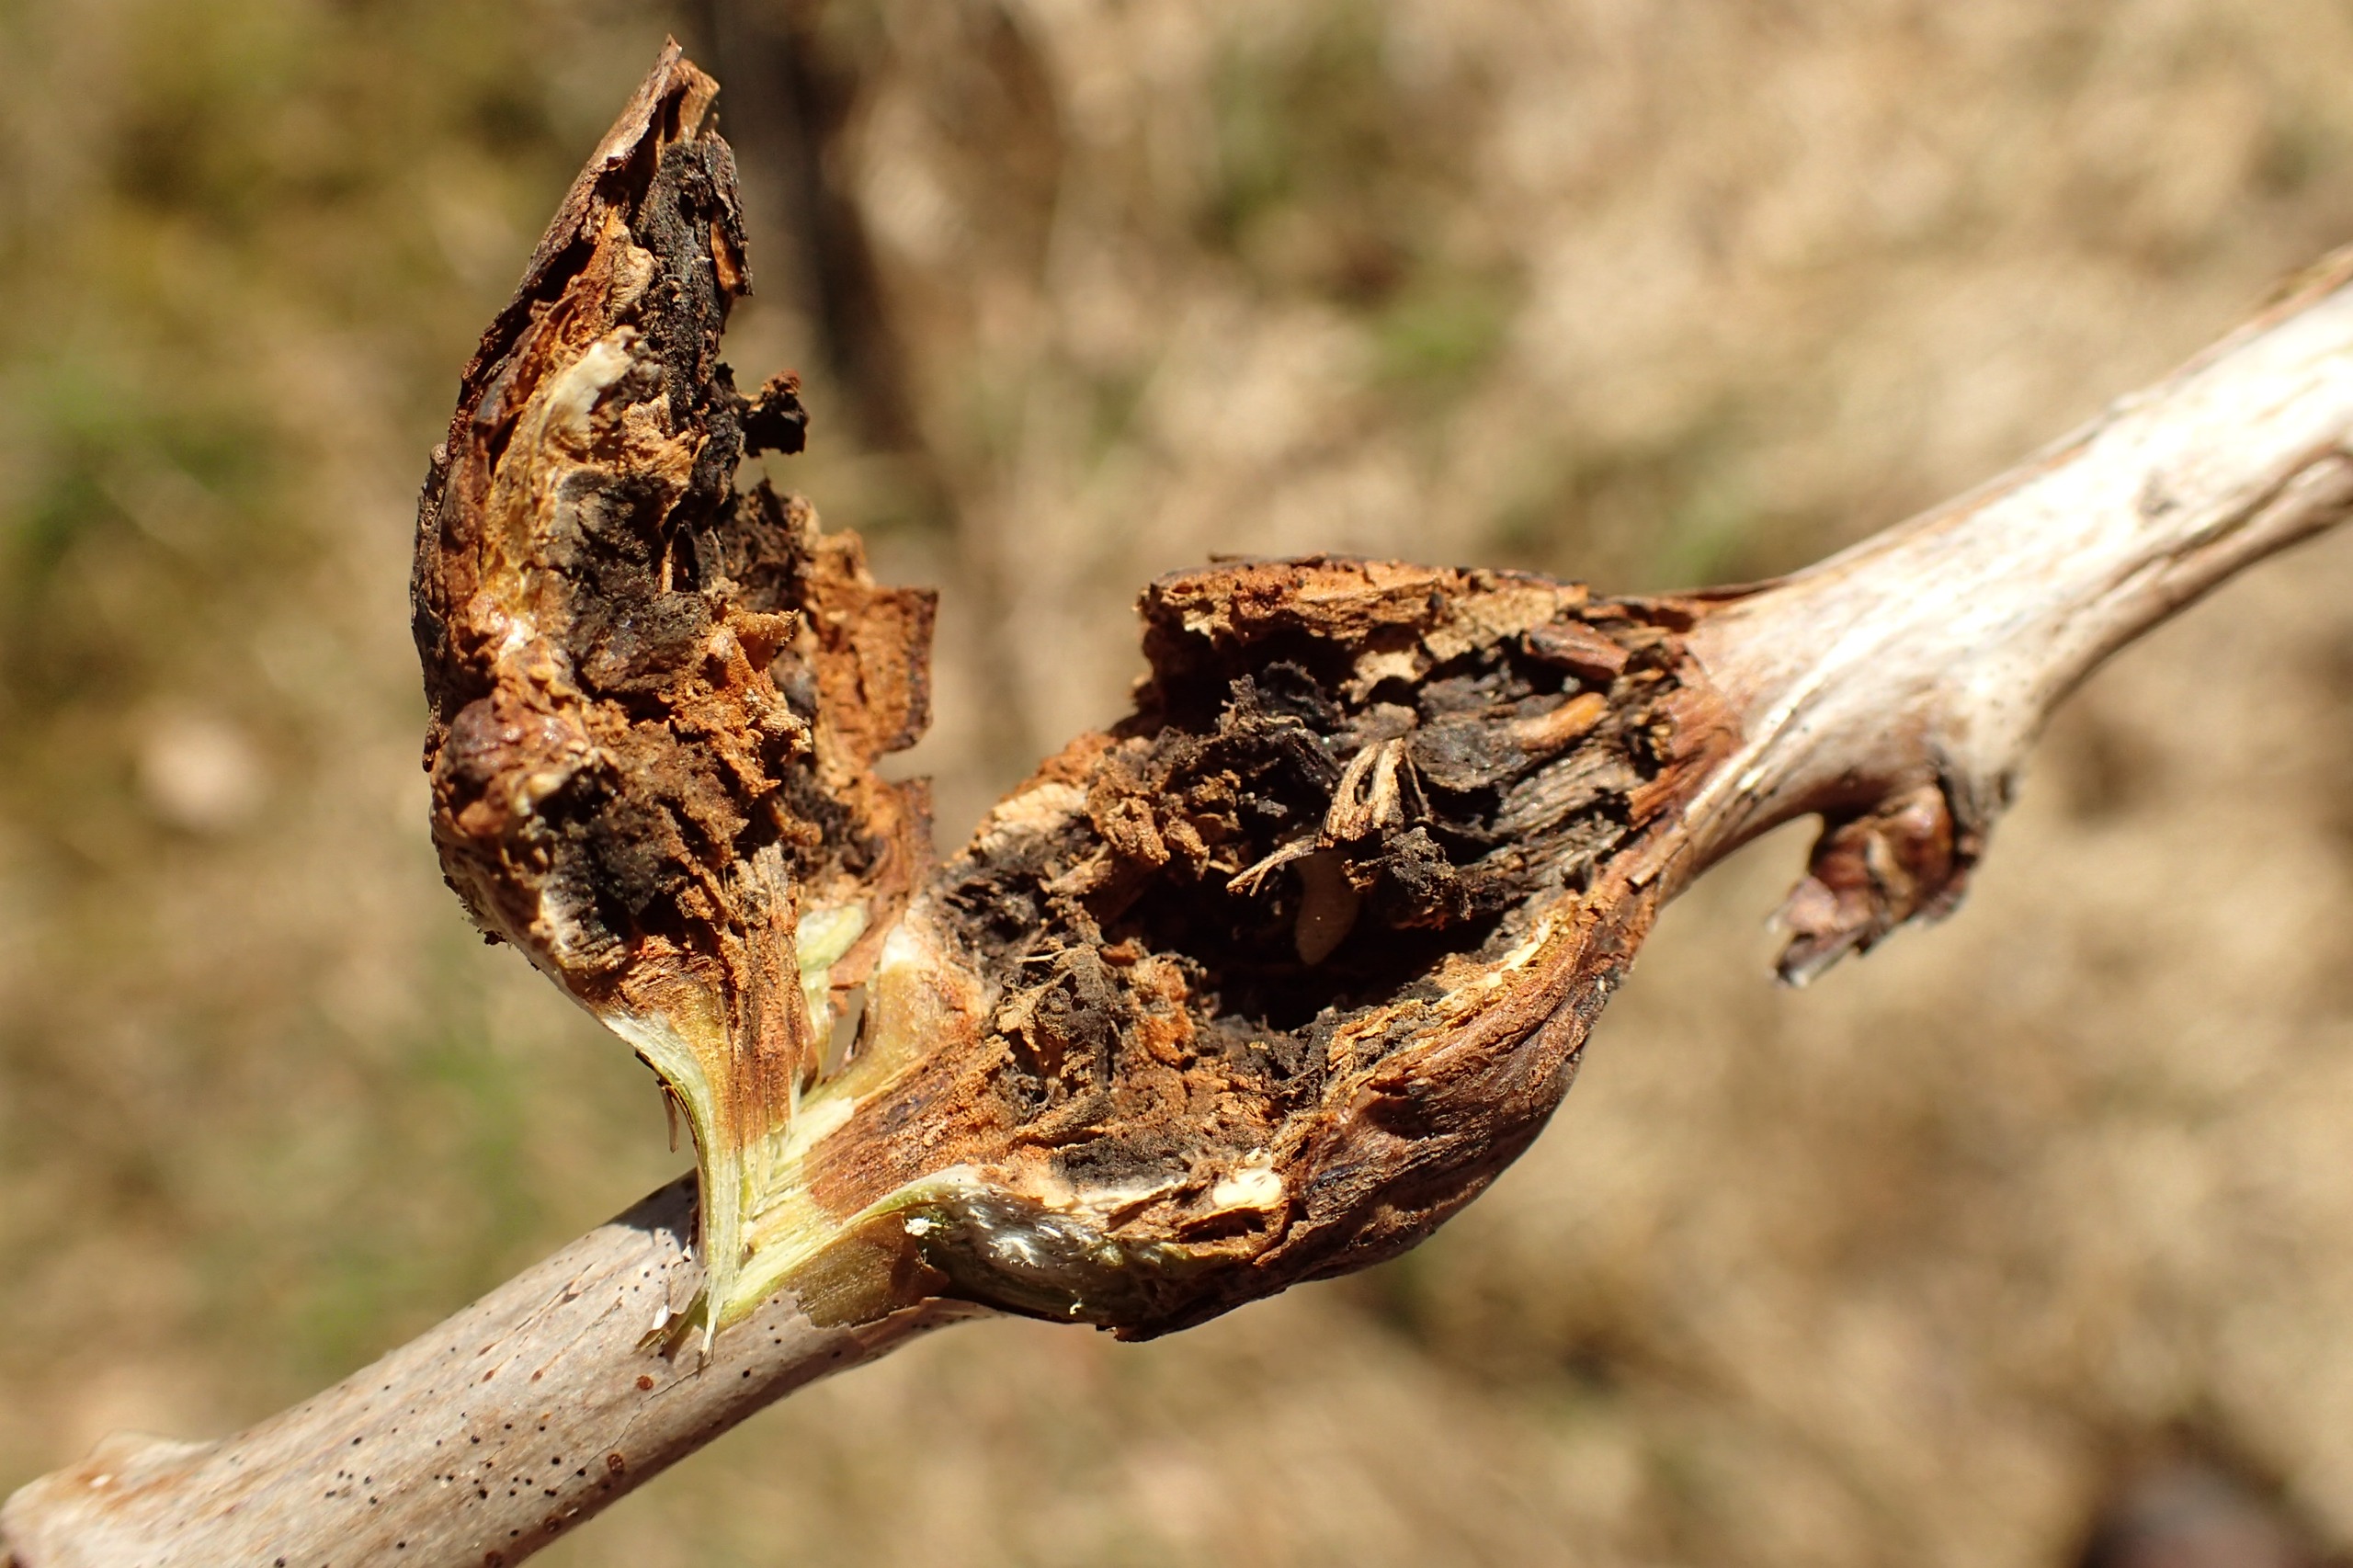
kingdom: Animalia
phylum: Arthropoda
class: Insecta
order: Diptera
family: Cecidomyiidae
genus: Lasioptera
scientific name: Lasioptera rubi
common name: Hindbærstængelgalmyg
